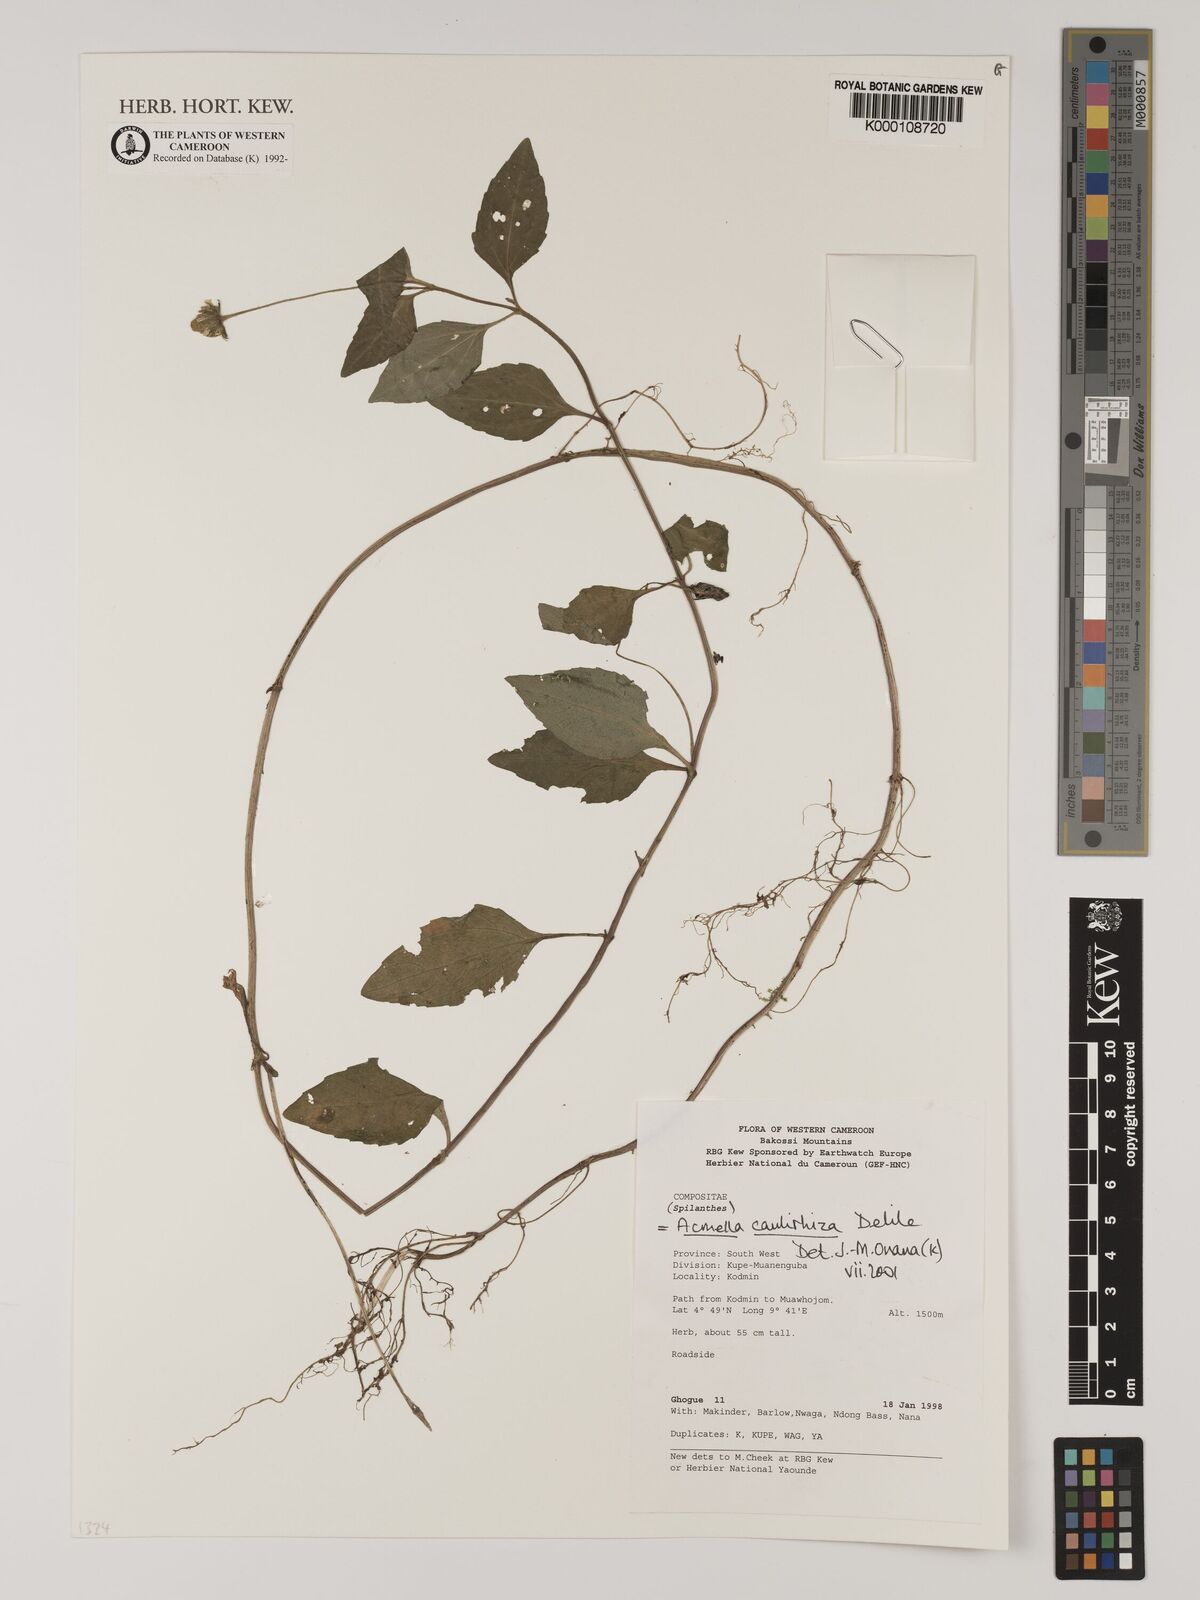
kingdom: Plantae
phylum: Tracheophyta
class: Magnoliopsida
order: Asterales
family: Asteraceae
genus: Acmella
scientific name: Acmella caulirhiza
